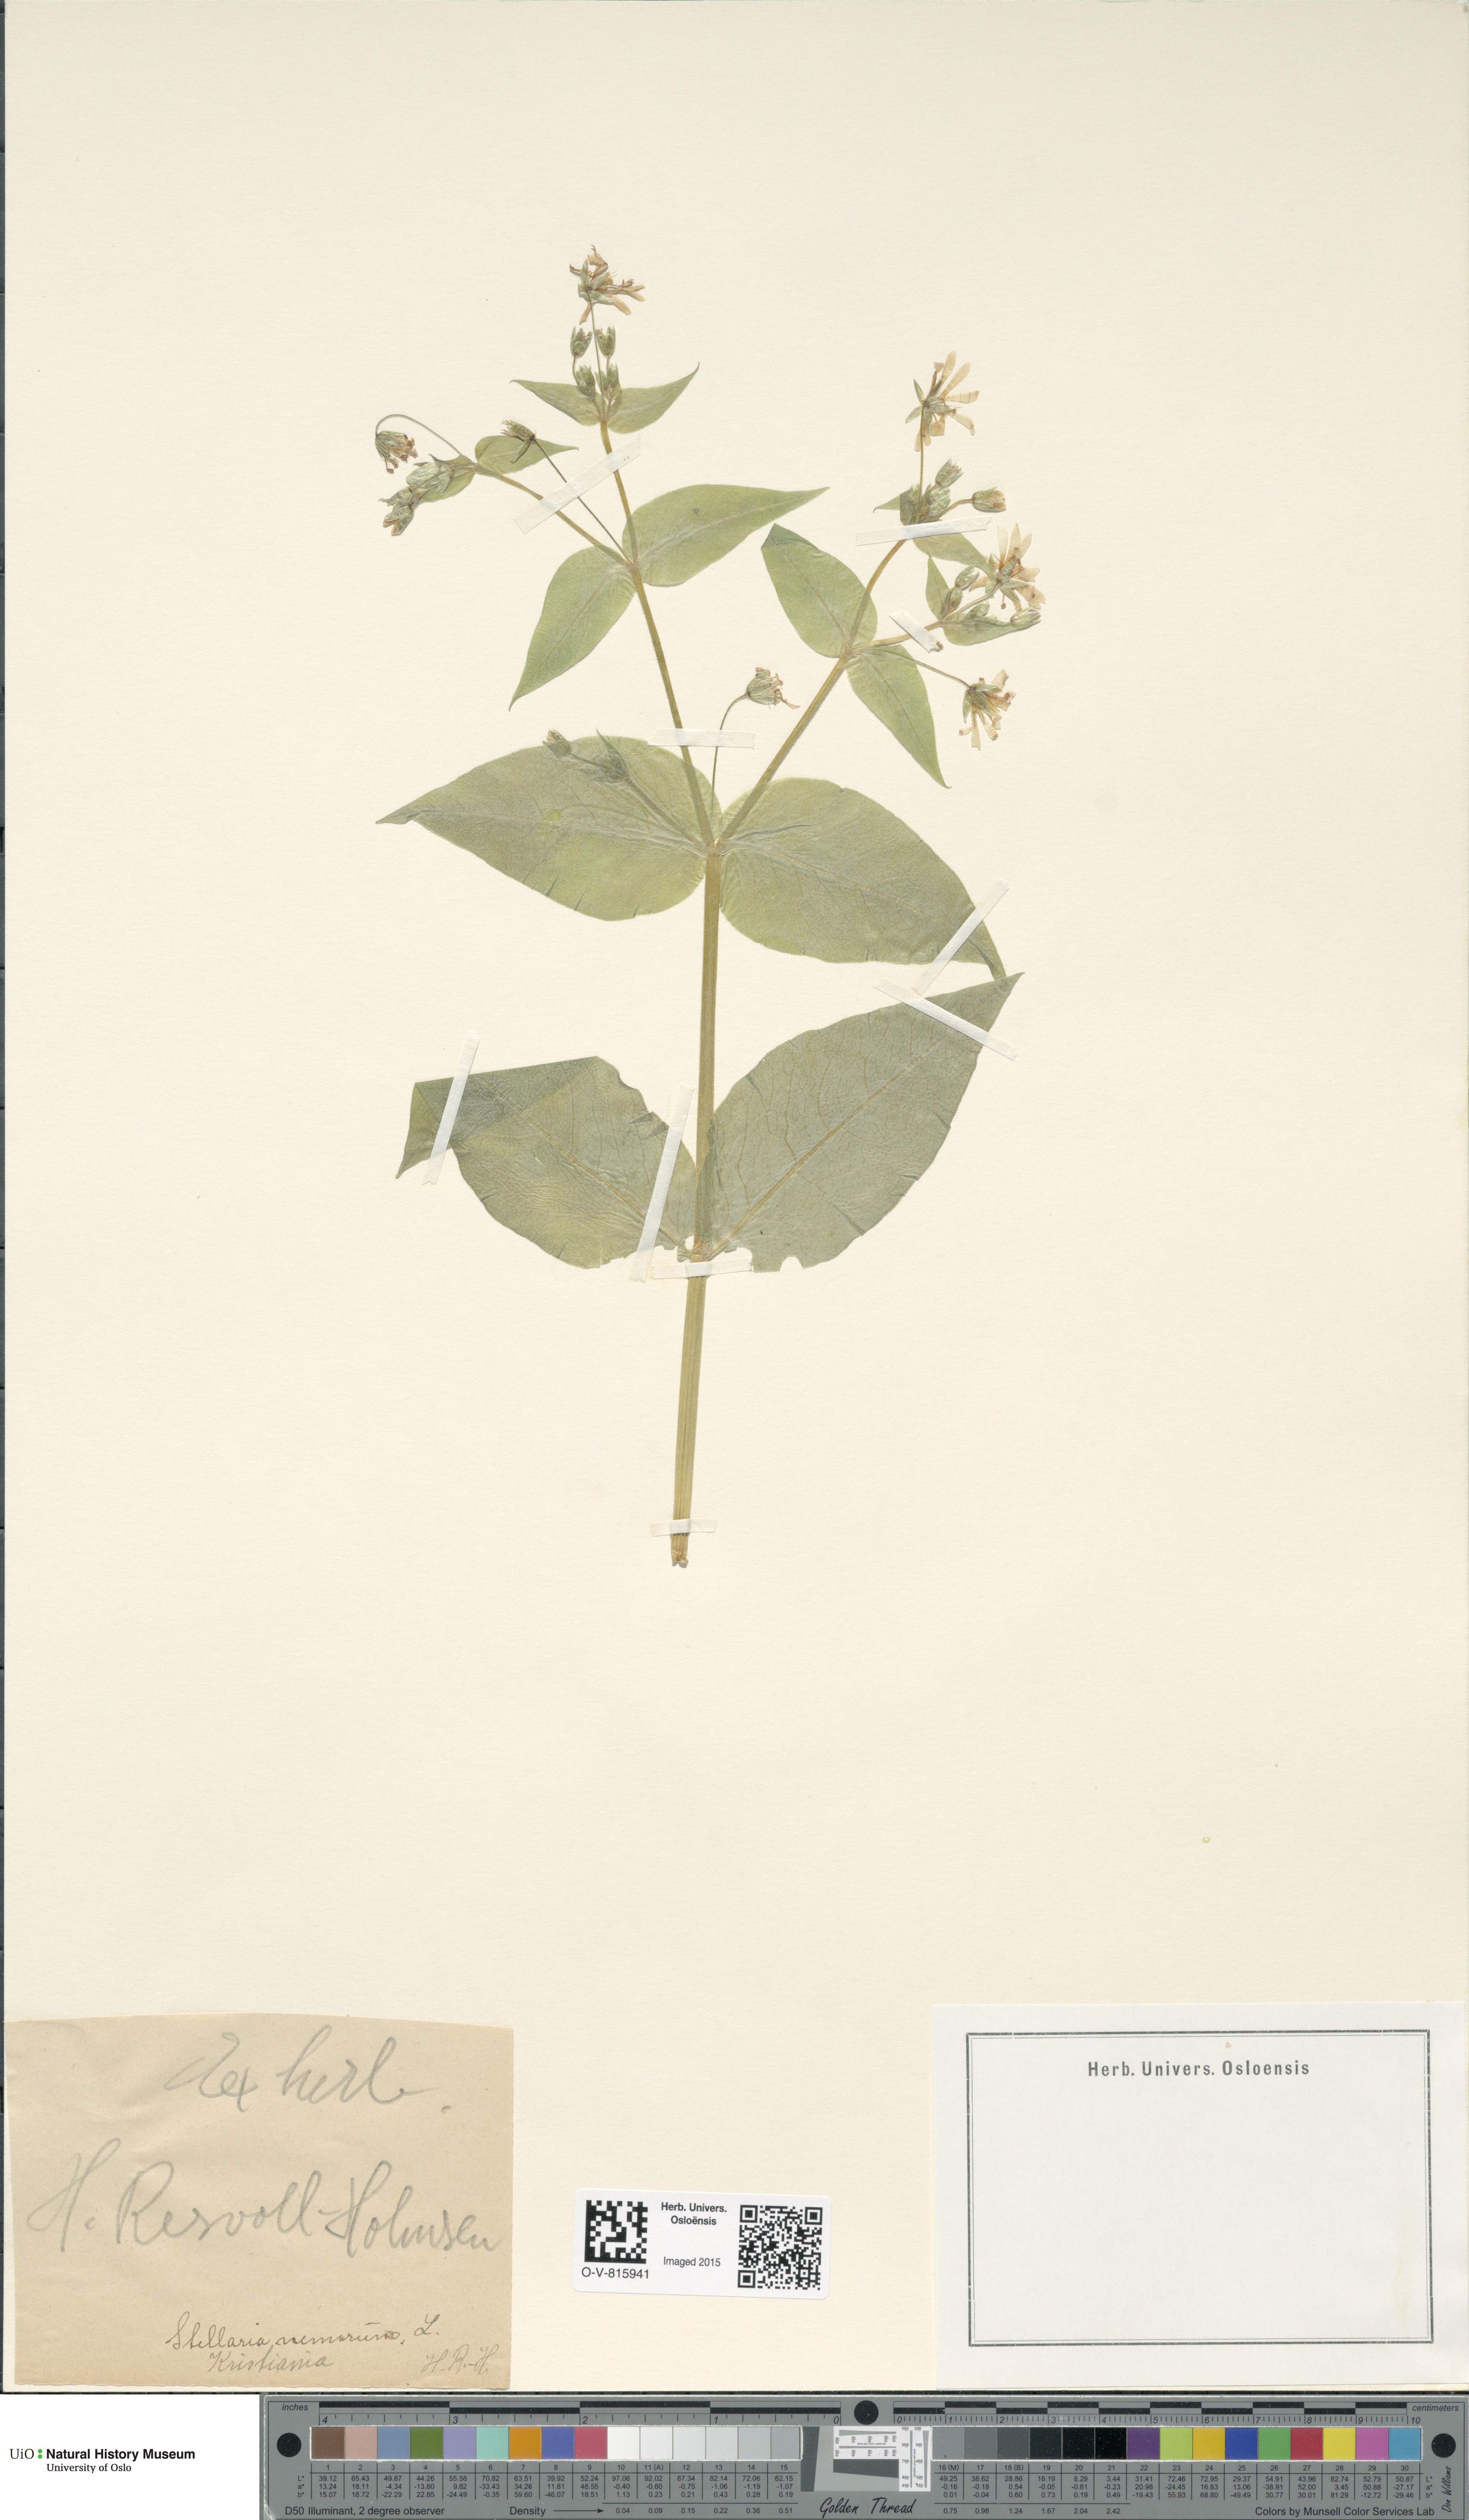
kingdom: Plantae
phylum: Tracheophyta
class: Magnoliopsida
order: Caryophyllales
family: Caryophyllaceae
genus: Stellaria
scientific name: Stellaria nemorum
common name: Wood stitchwort
